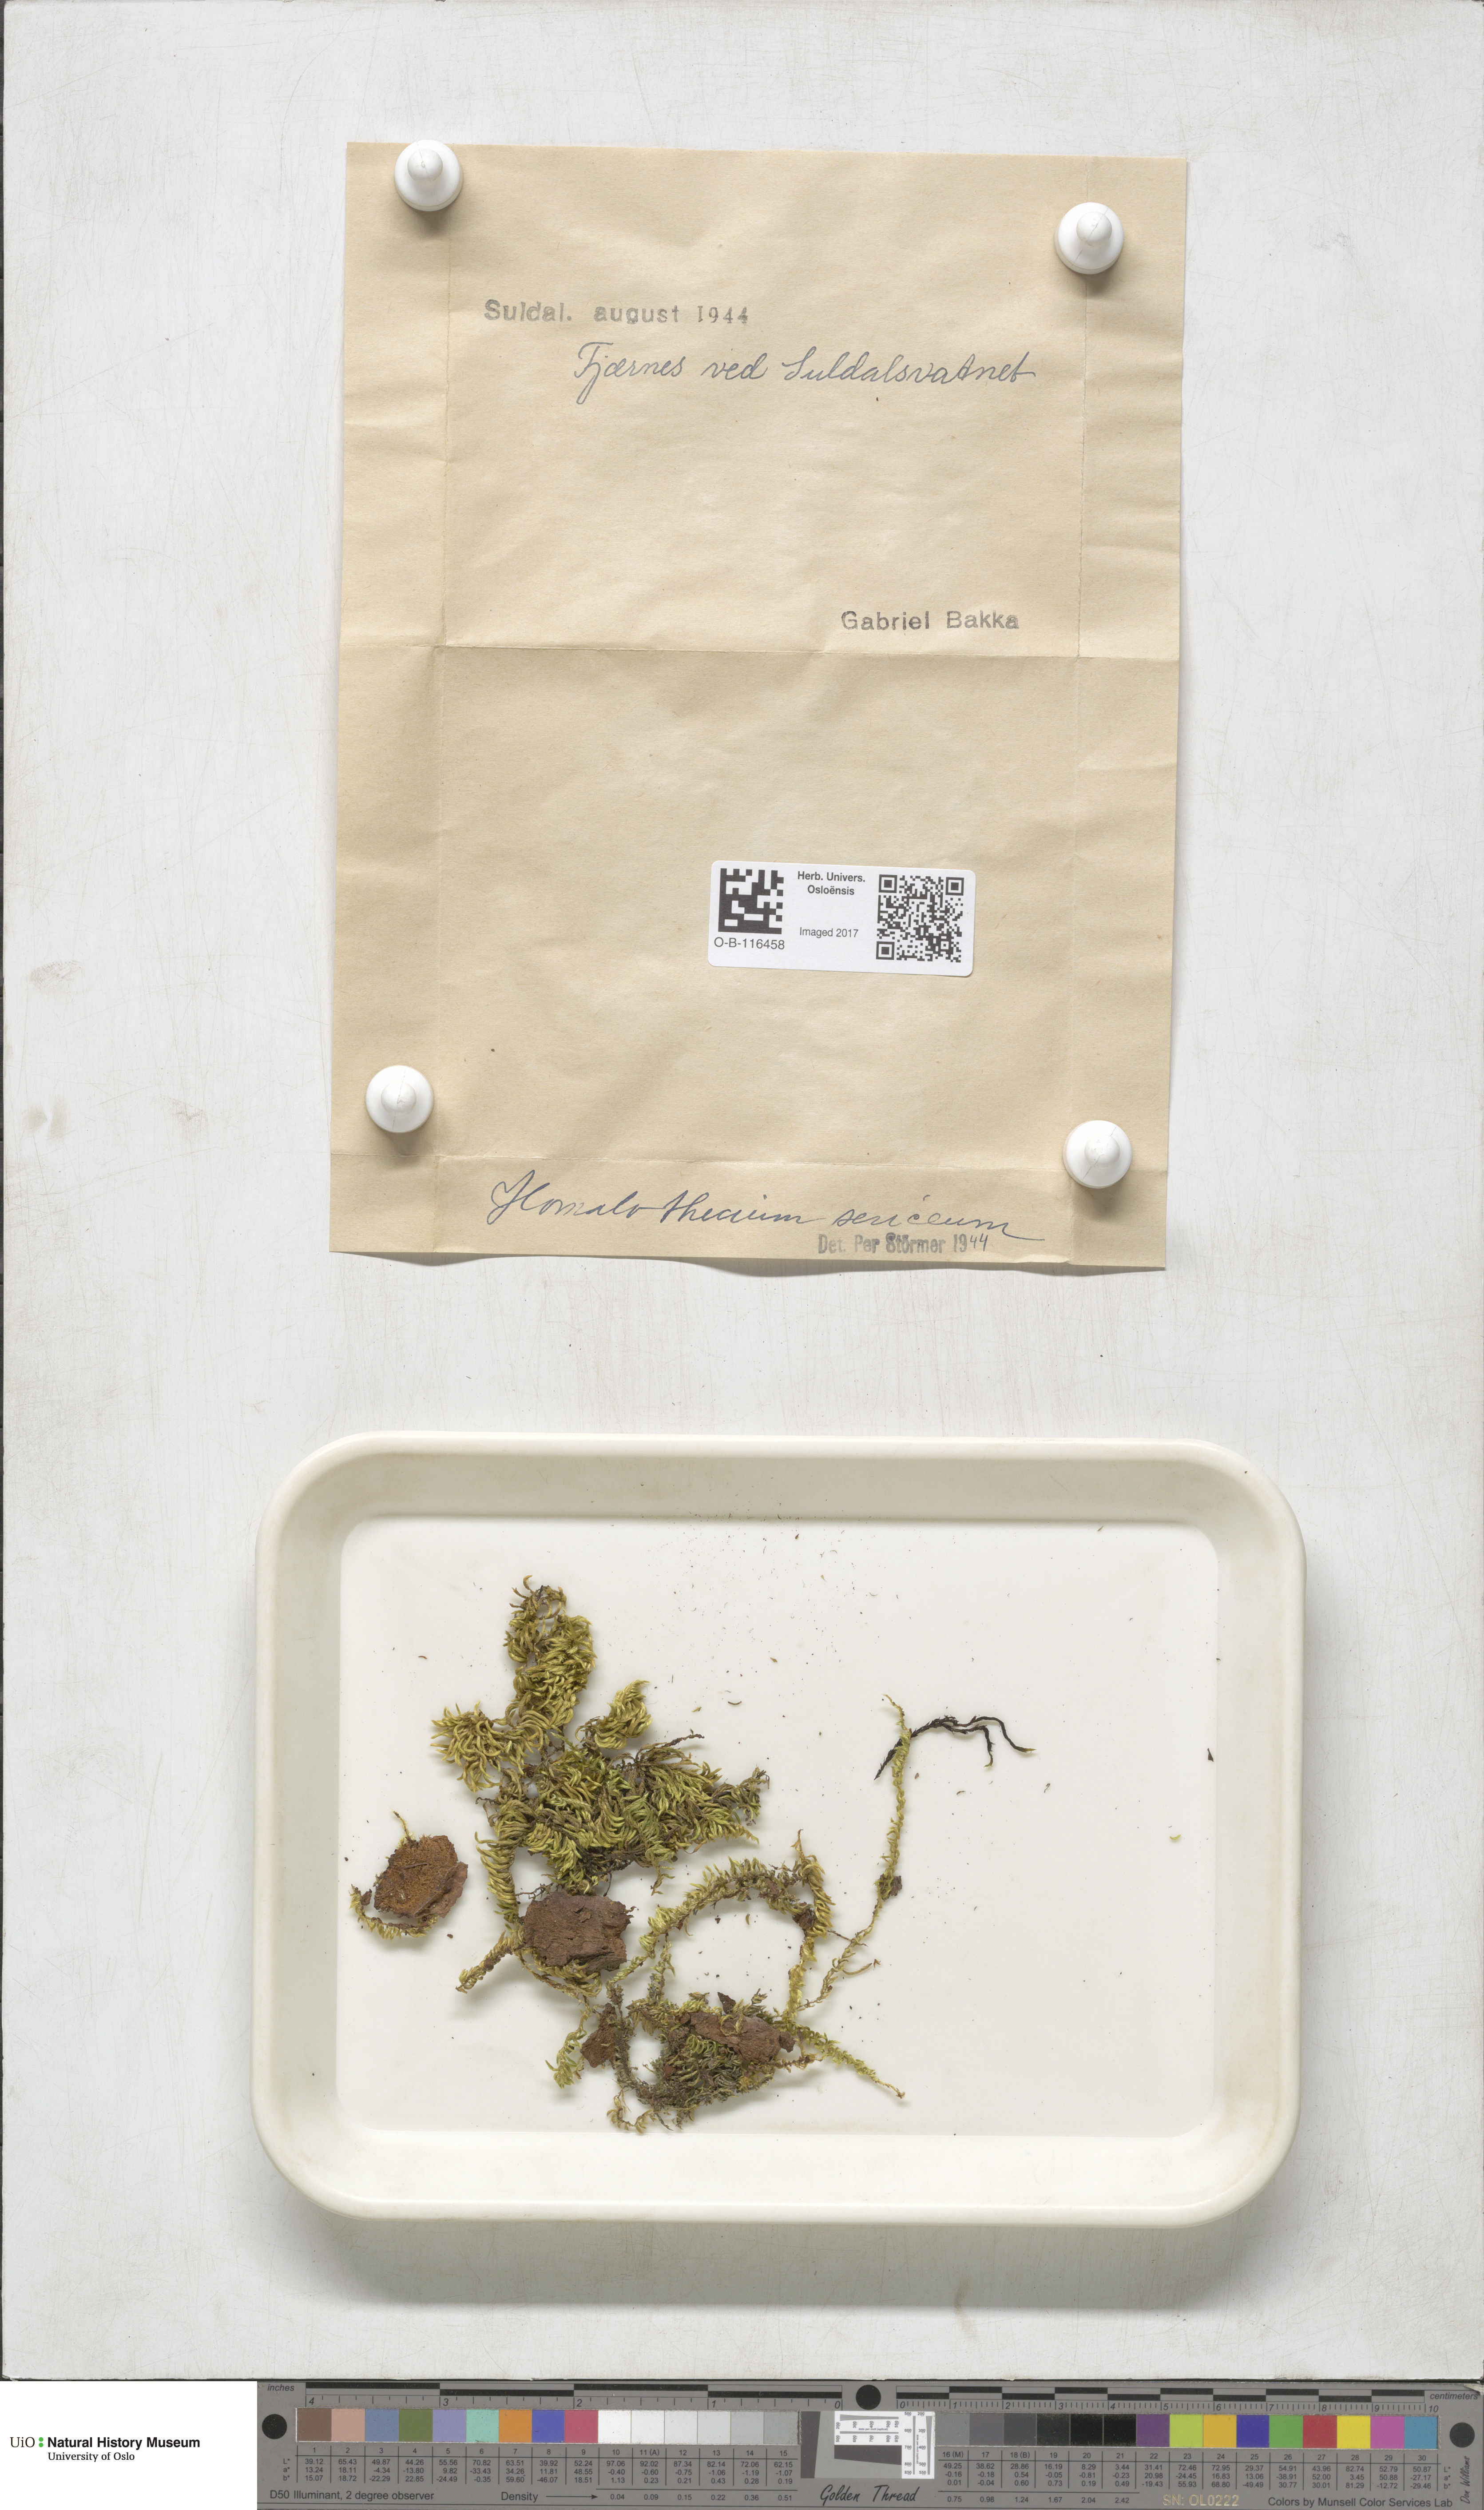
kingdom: Plantae
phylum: Bryophyta
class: Bryopsida
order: Hypnales
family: Brachytheciaceae
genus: Homalothecium
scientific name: Homalothecium sericeum
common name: Silky wall feather-moss
